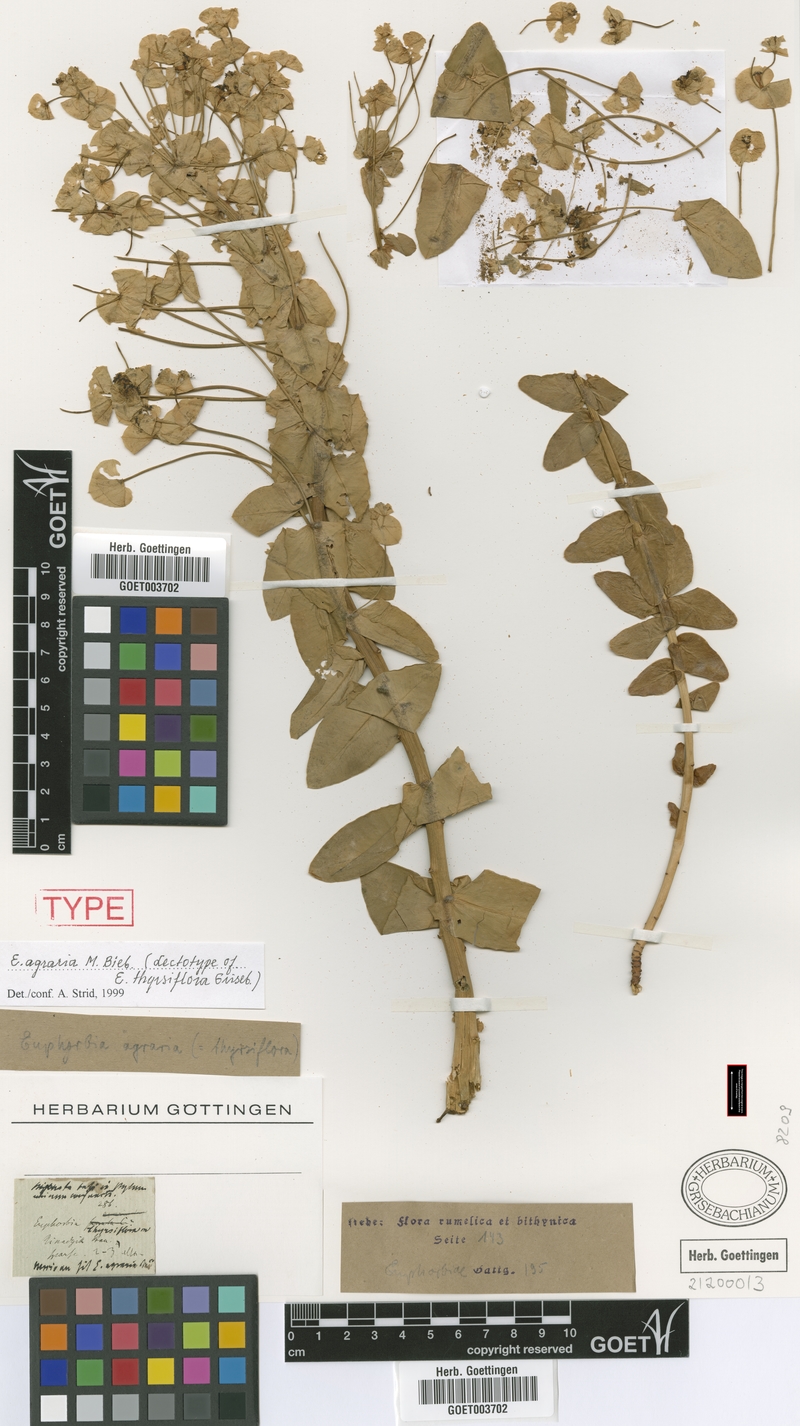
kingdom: Plantae
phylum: Tracheophyta
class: Magnoliopsida
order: Malpighiales
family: Euphorbiaceae
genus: Euphorbia
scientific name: Euphorbia agraria
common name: Urban spurge
